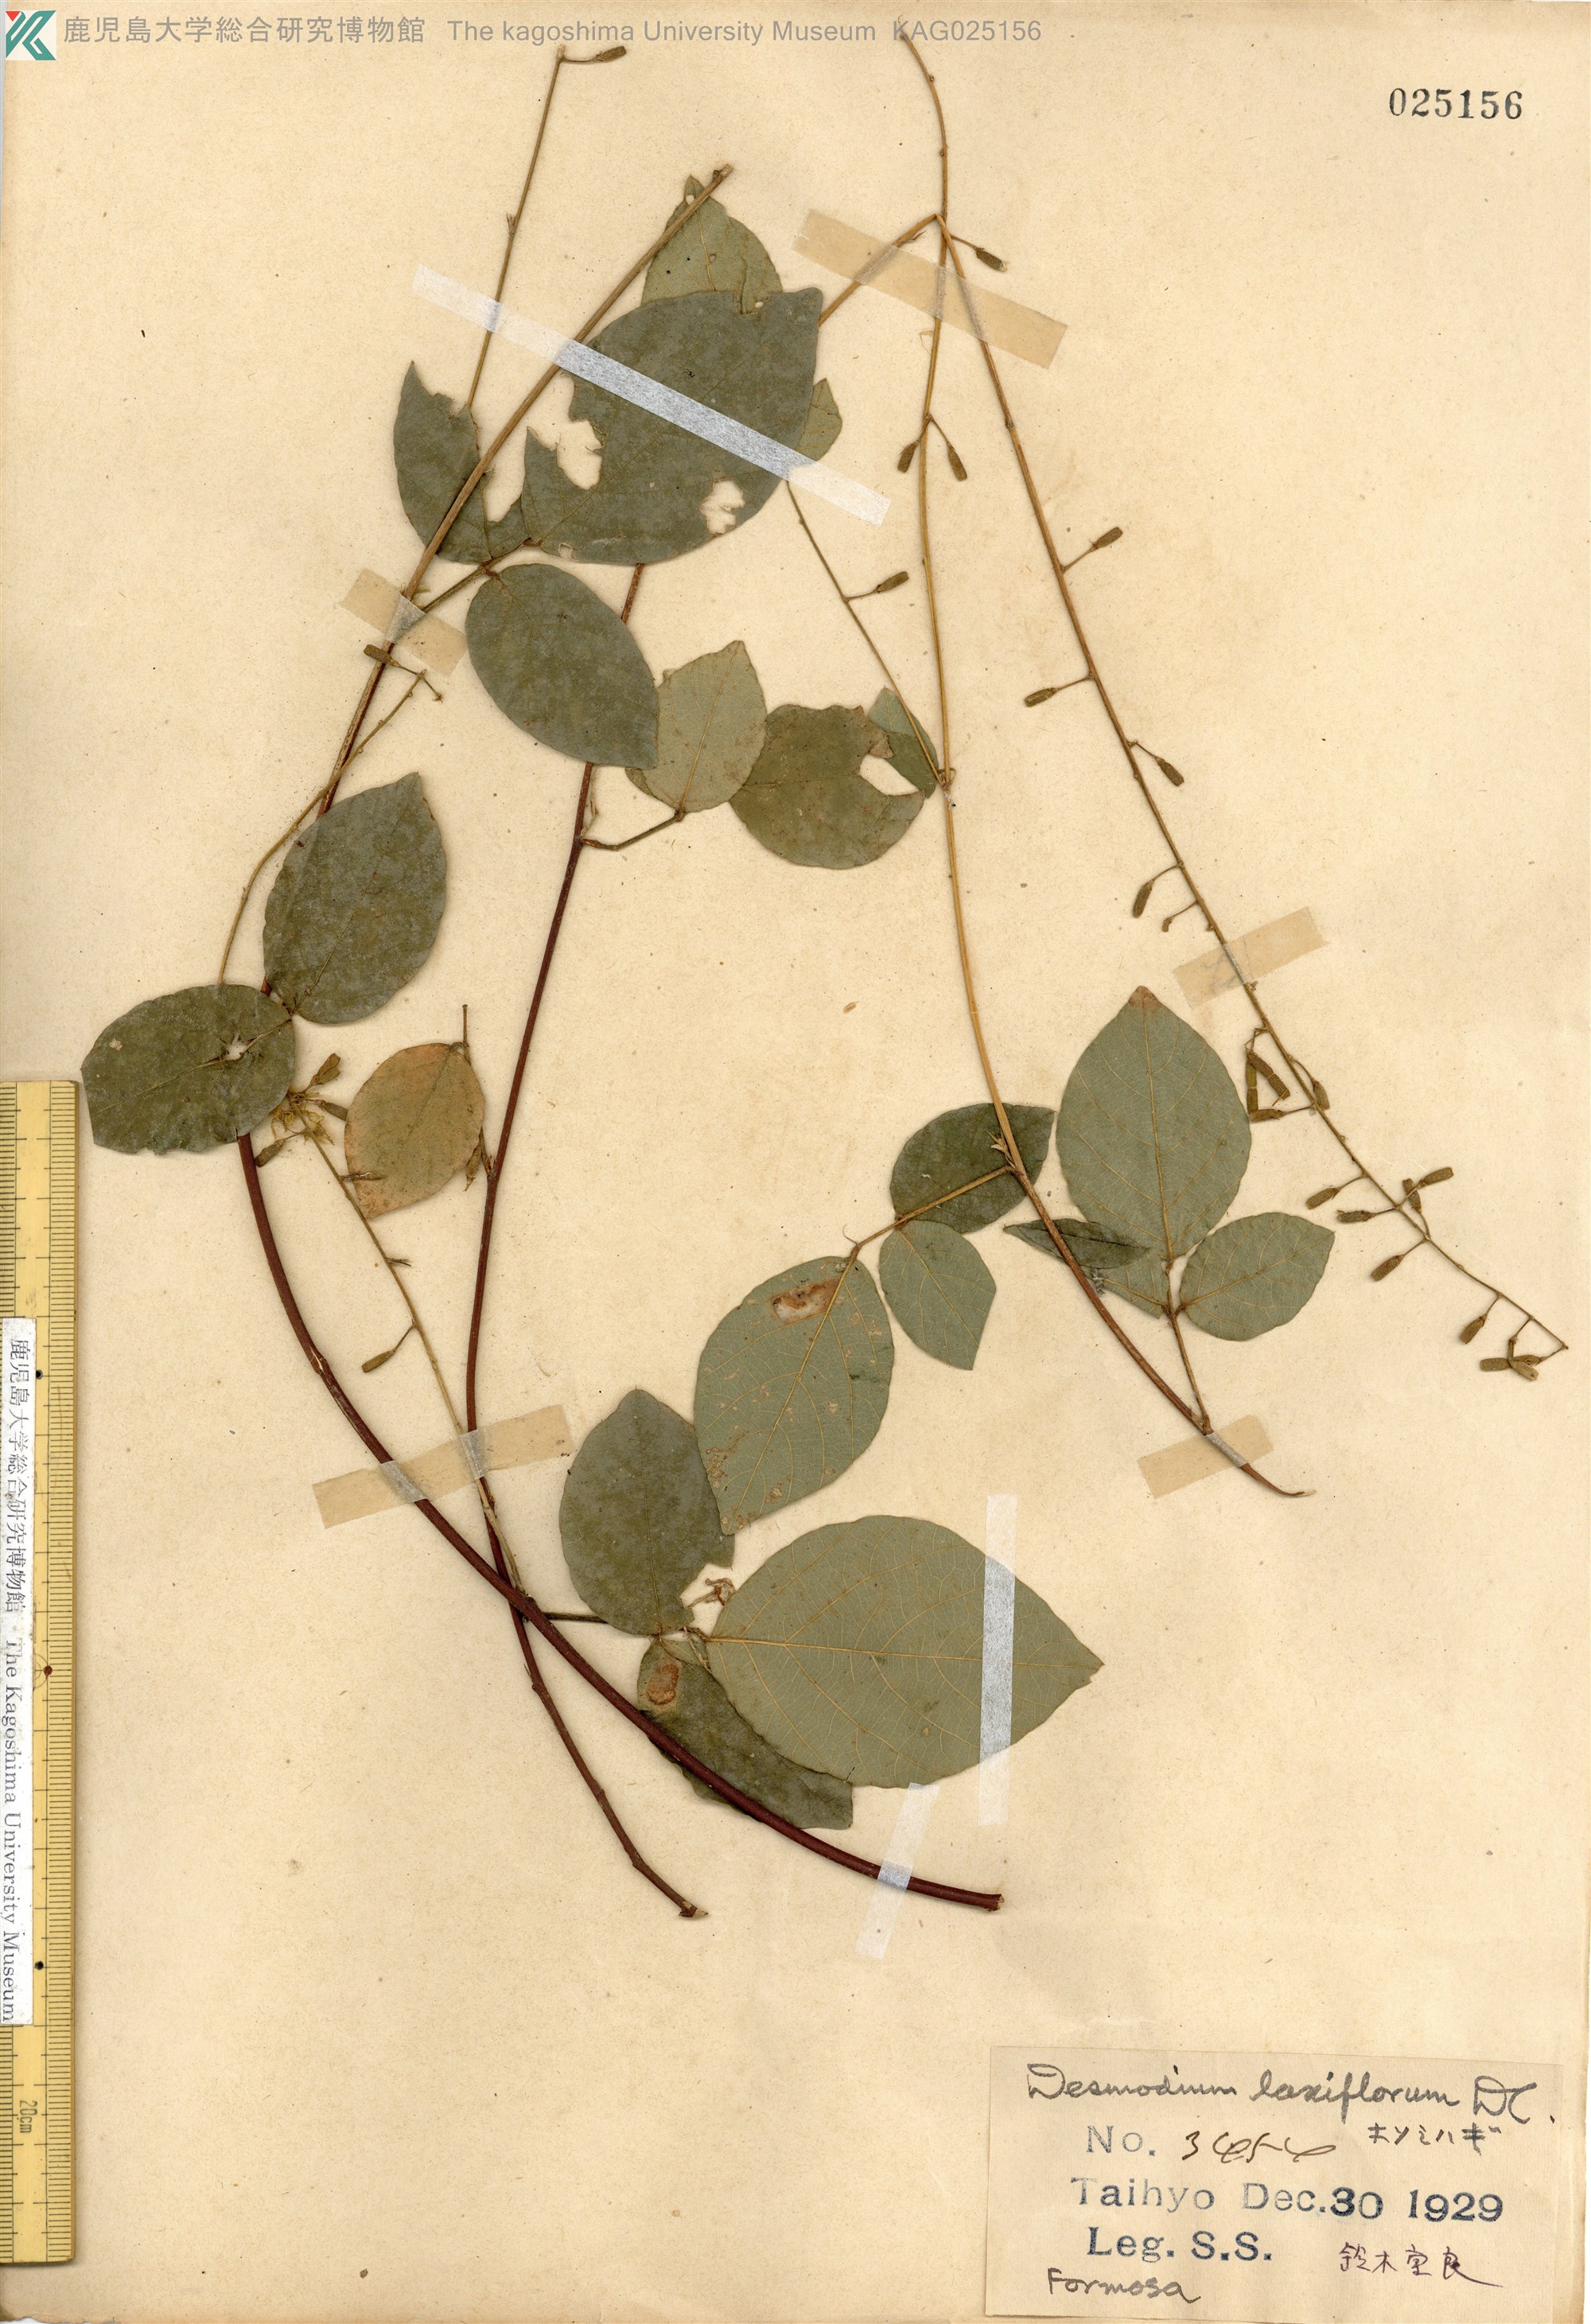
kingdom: Plantae
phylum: Tracheophyta
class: Magnoliopsida
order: Fabales
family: Fabaceae
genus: Sohmaea
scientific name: Sohmaea laxiflora
